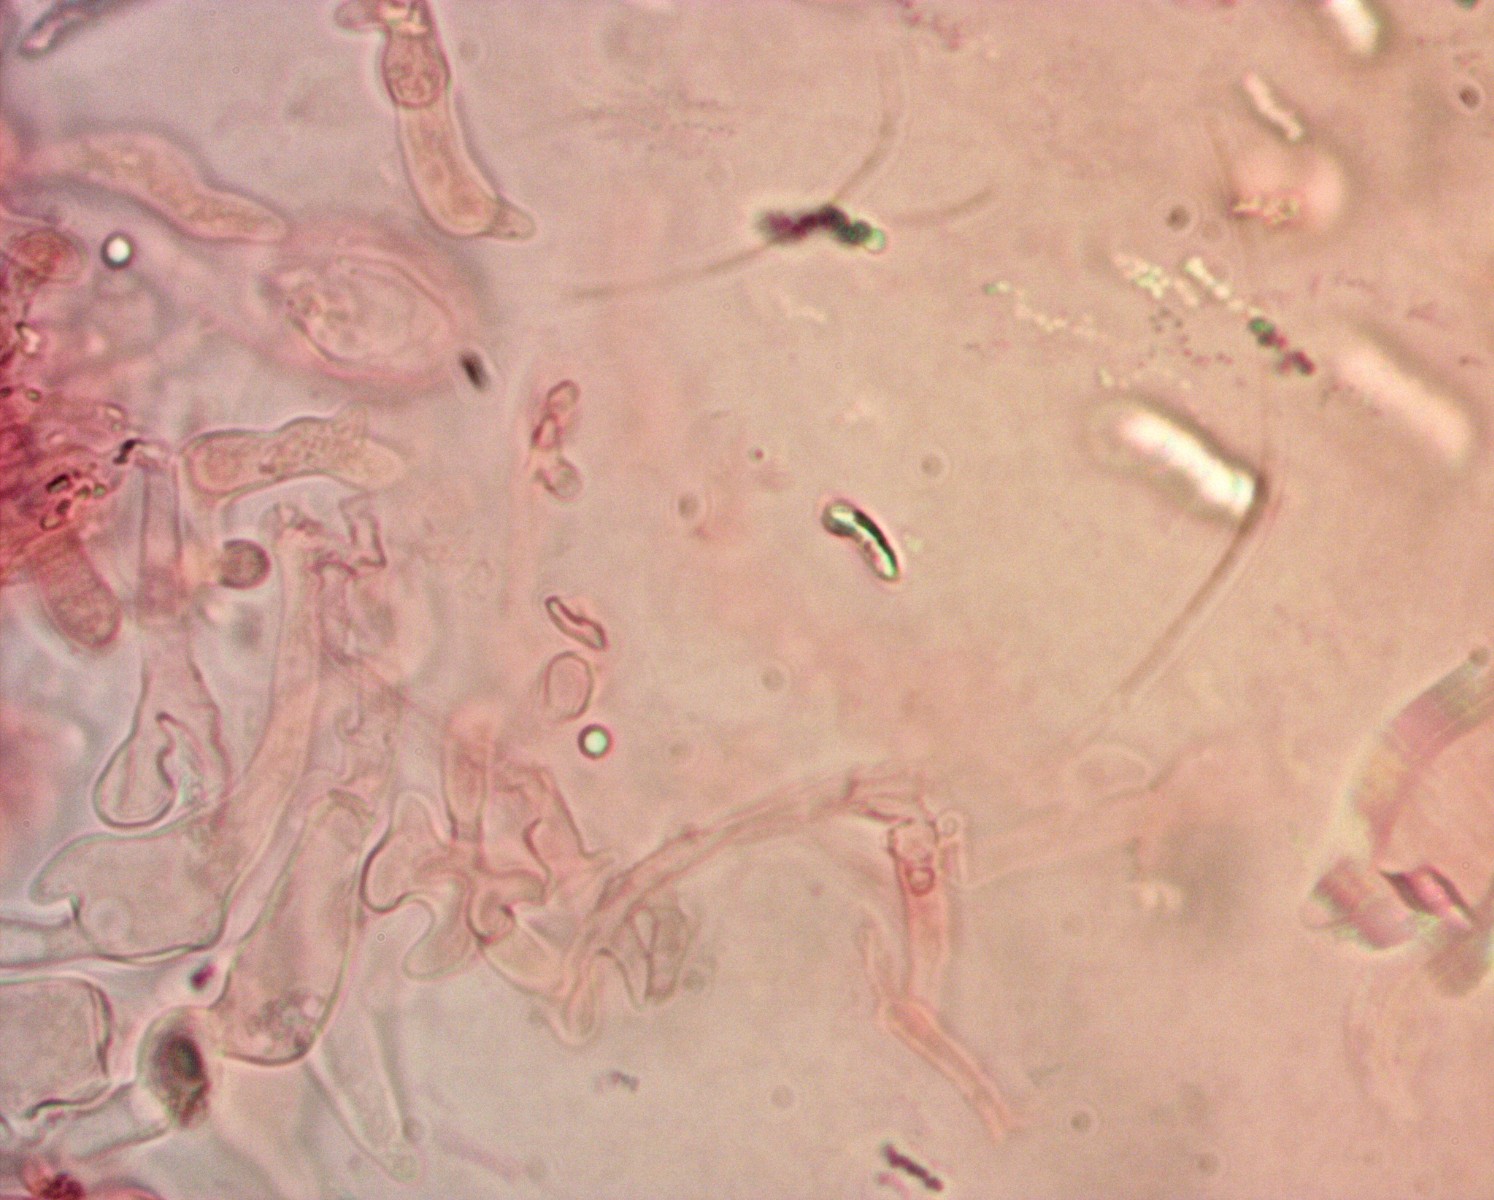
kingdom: Fungi
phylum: Basidiomycota
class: Agaricomycetes
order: Agaricales
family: Mycenaceae
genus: Mycena
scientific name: Mycena leptocephala
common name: klor-huesvamp
